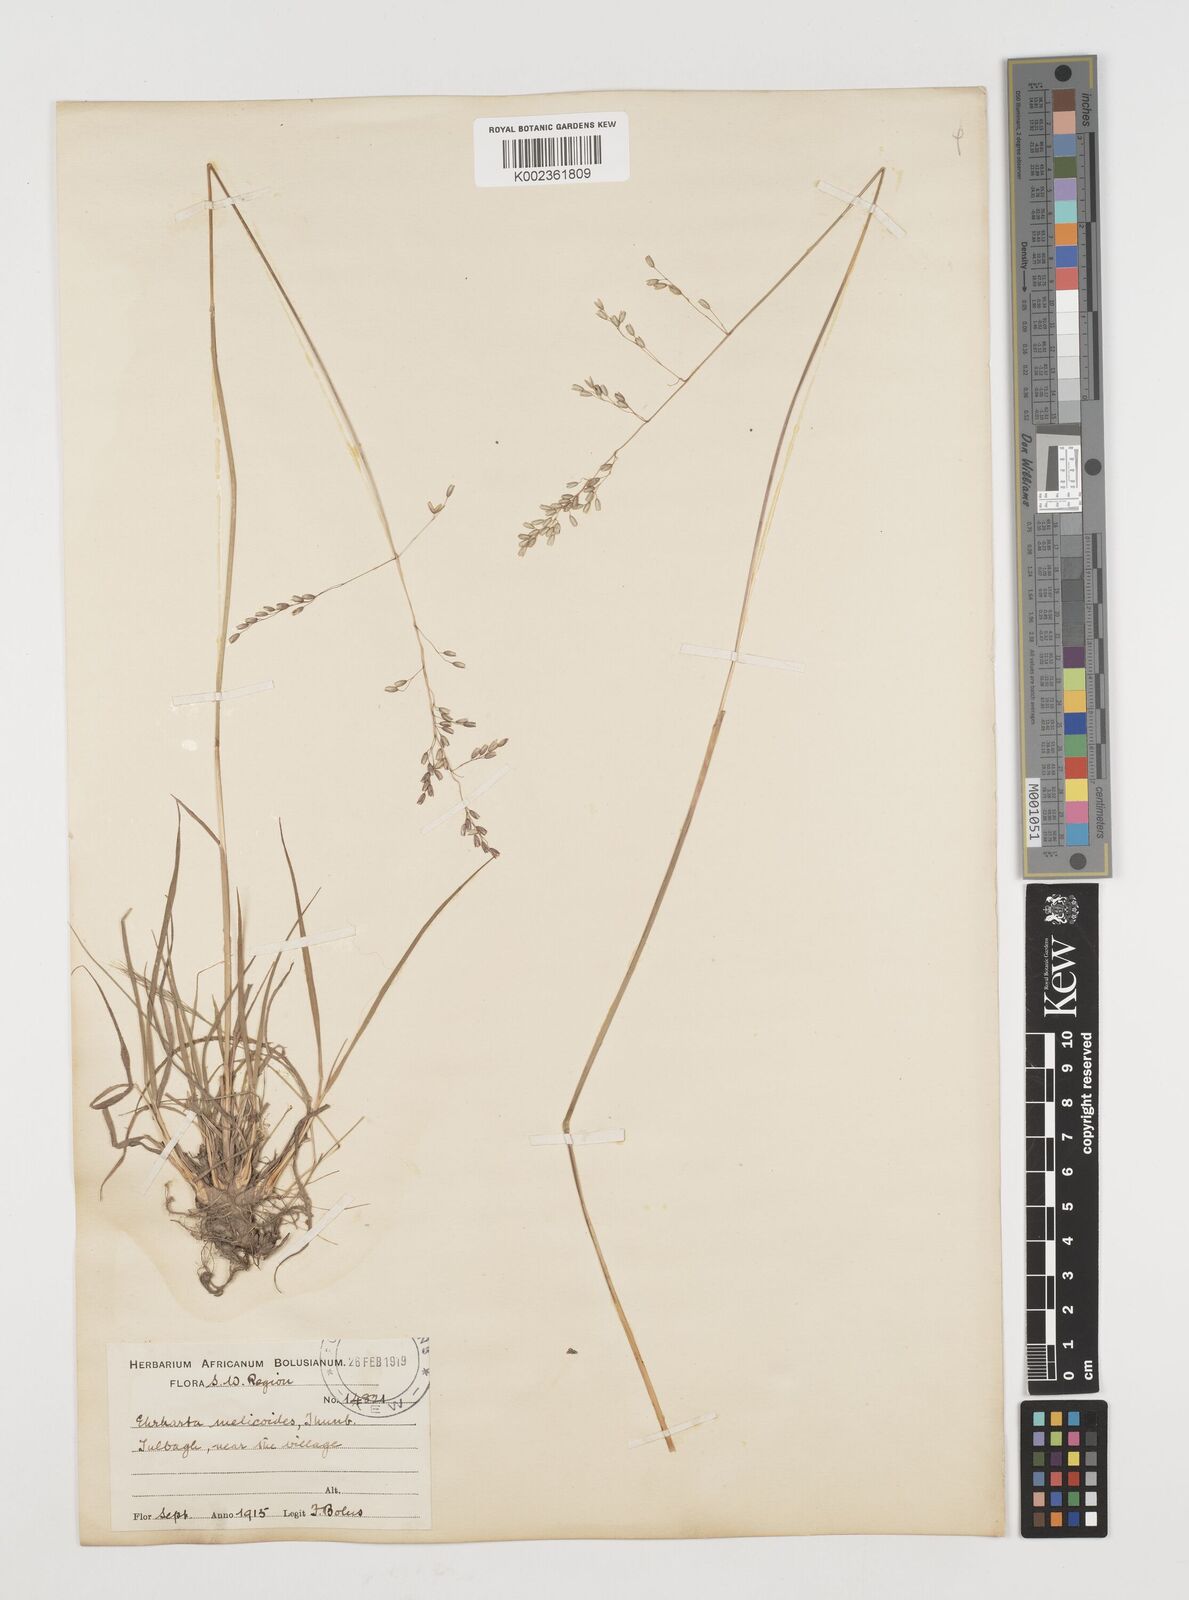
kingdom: Plantae
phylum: Tracheophyta
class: Liliopsida
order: Poales
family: Poaceae
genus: Ehrharta
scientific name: Ehrharta melicoides
